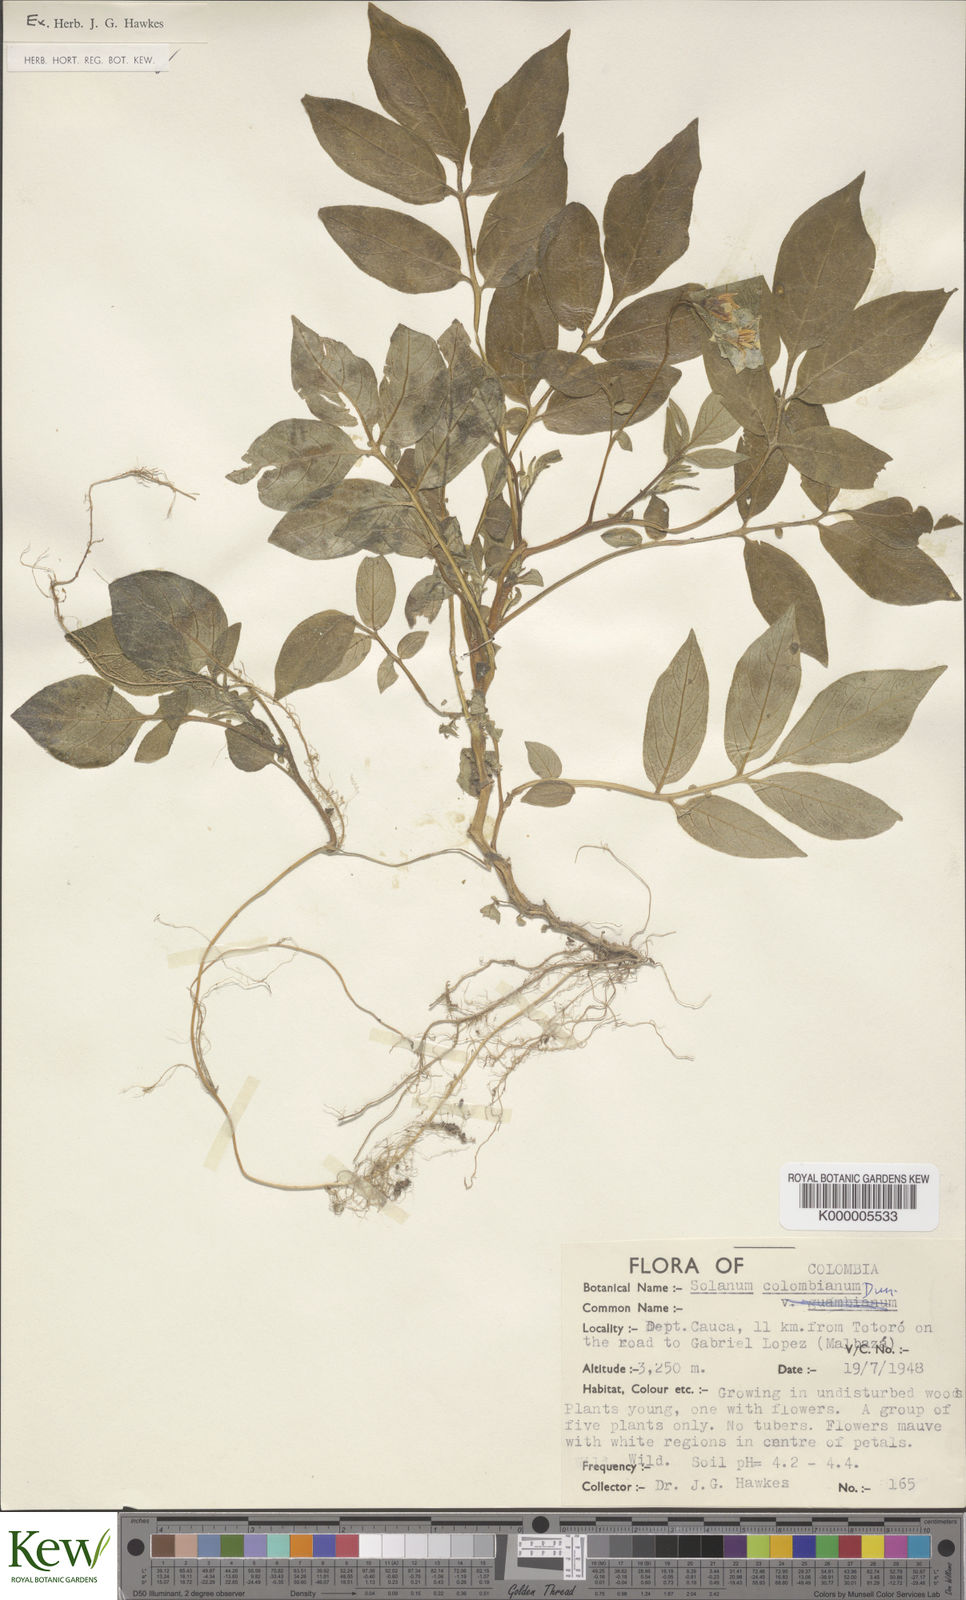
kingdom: Plantae
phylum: Tracheophyta
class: Magnoliopsida
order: Solanales
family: Solanaceae
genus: Solanum
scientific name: Solanum colombianum
